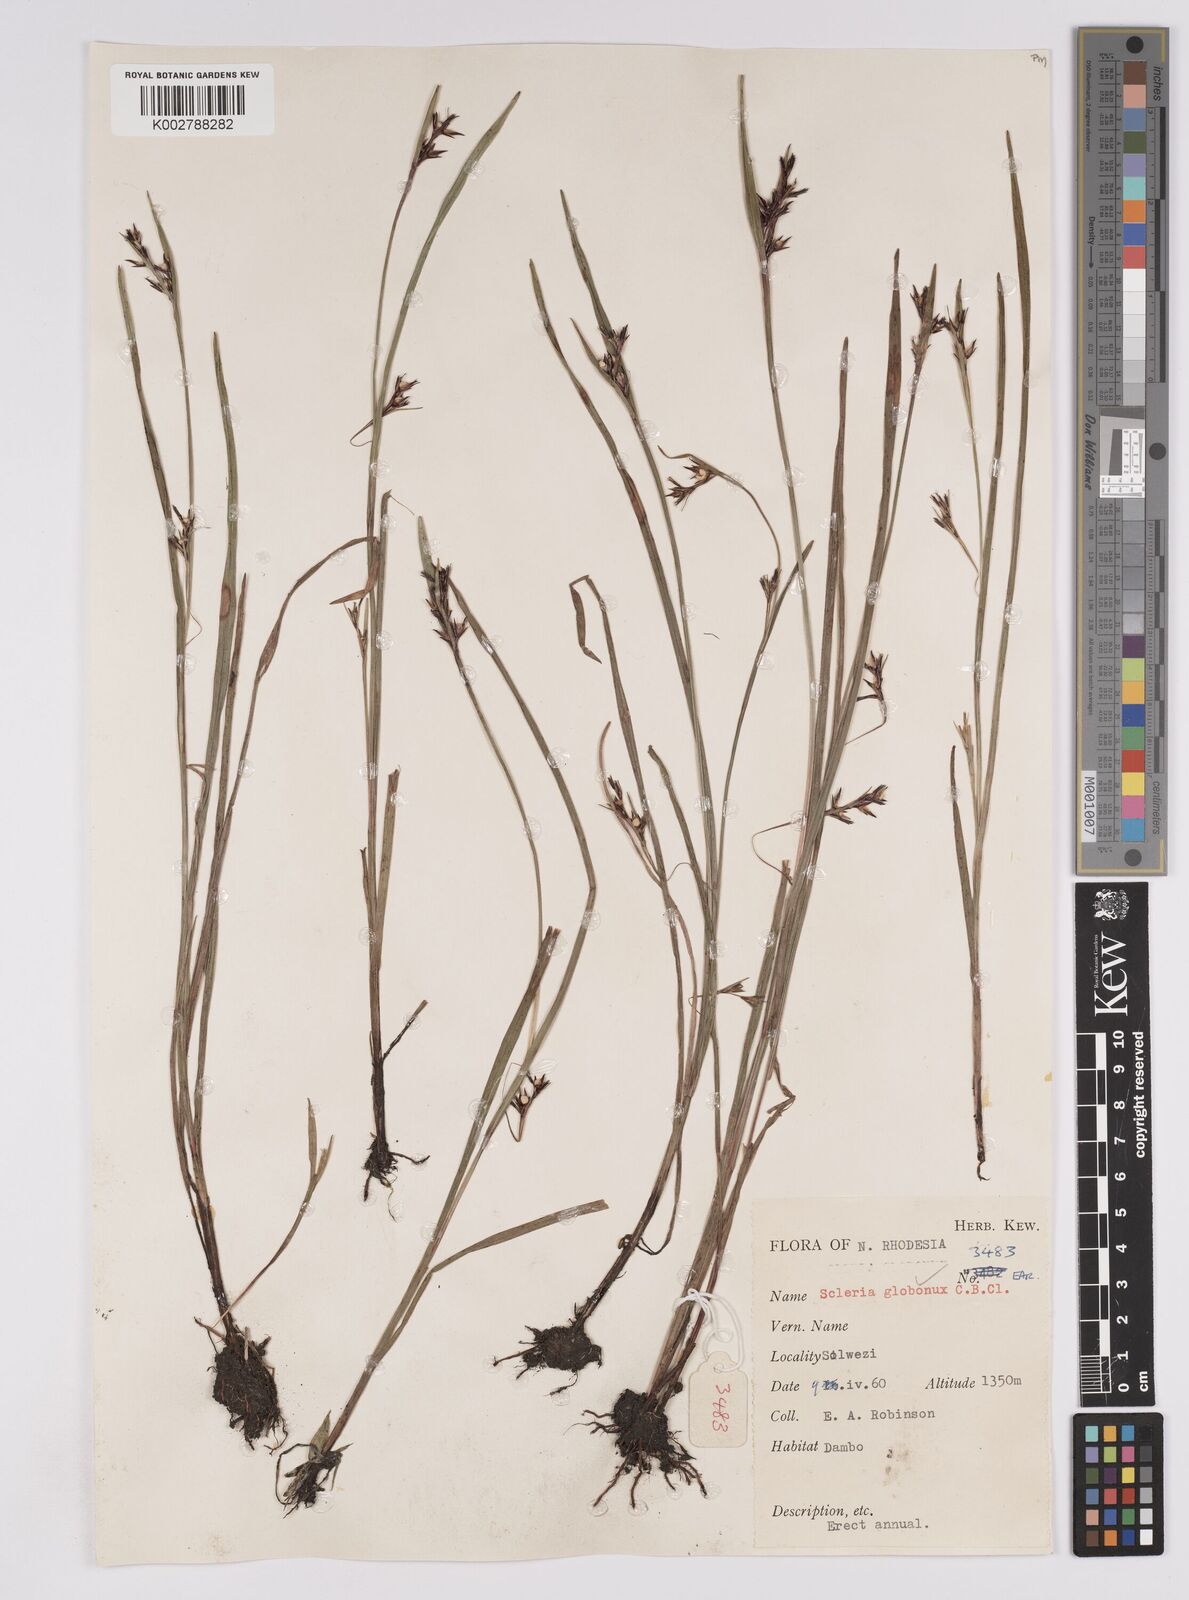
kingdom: Plantae
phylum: Tracheophyta
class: Liliopsida
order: Poales
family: Cyperaceae
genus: Scleria
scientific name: Scleria globonux
